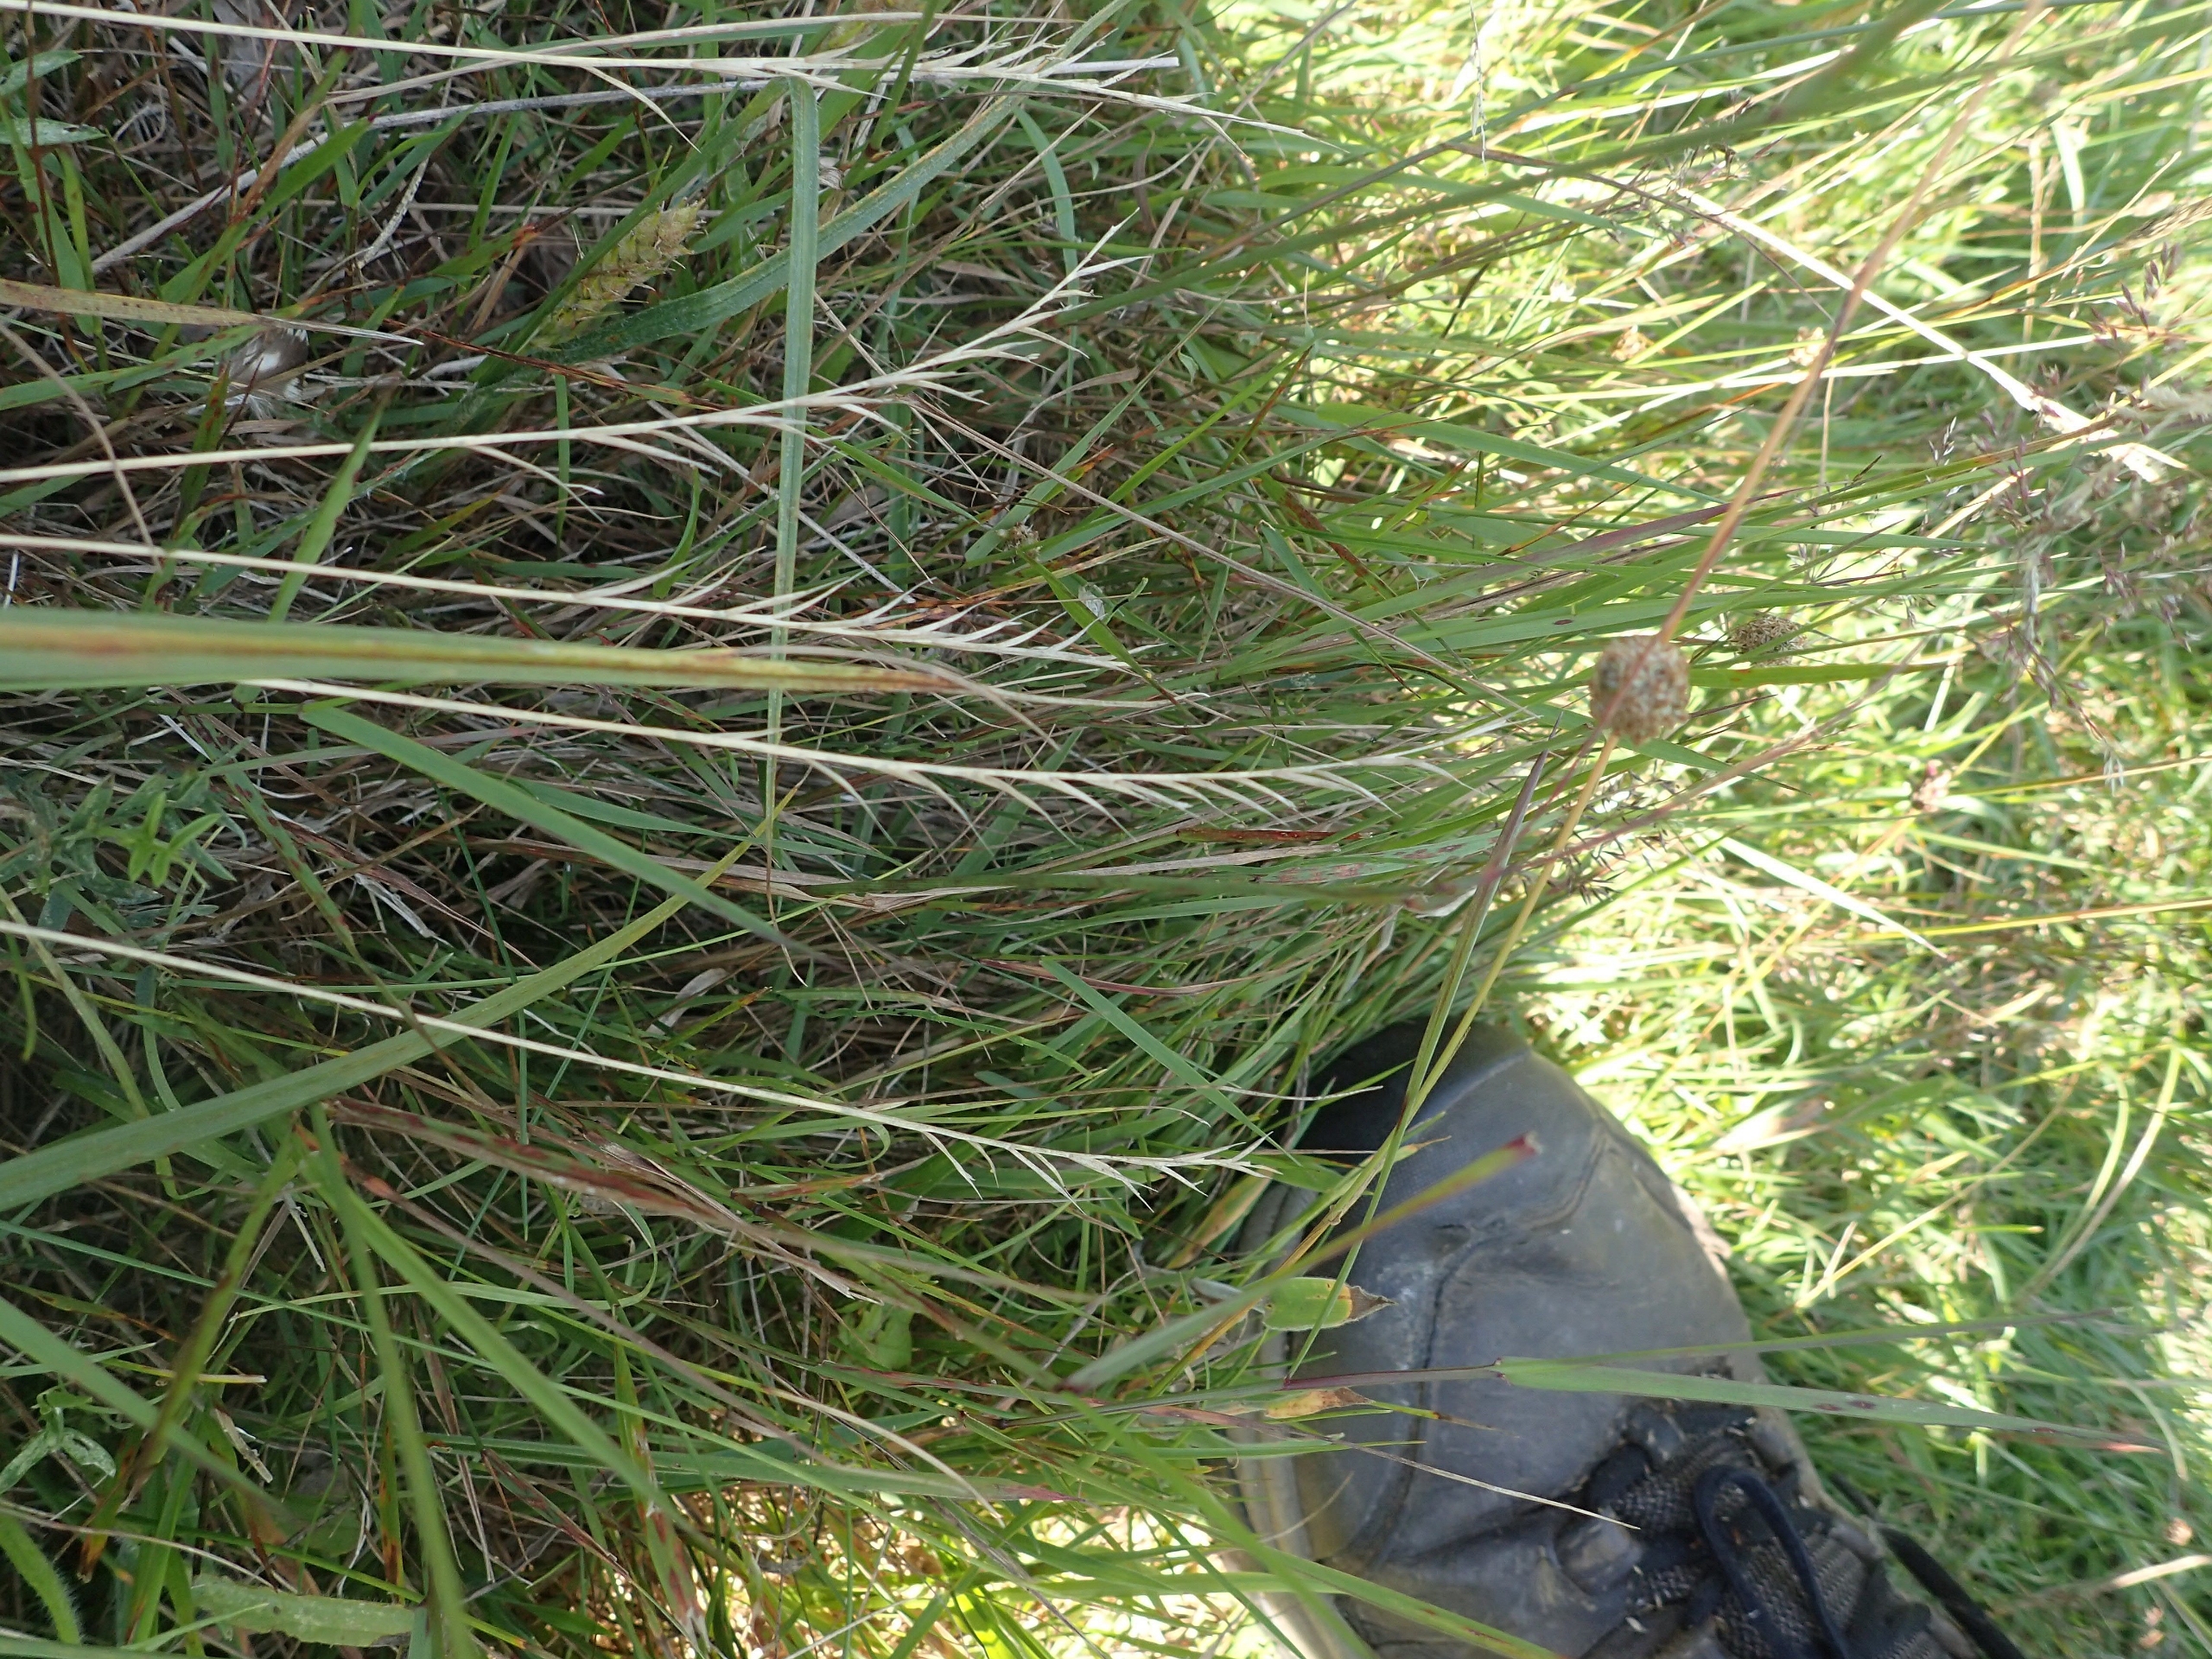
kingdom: Plantae
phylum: Tracheophyta
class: Liliopsida
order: Poales
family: Poaceae
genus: Nardus
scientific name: Nardus stricta
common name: Katteskæg
